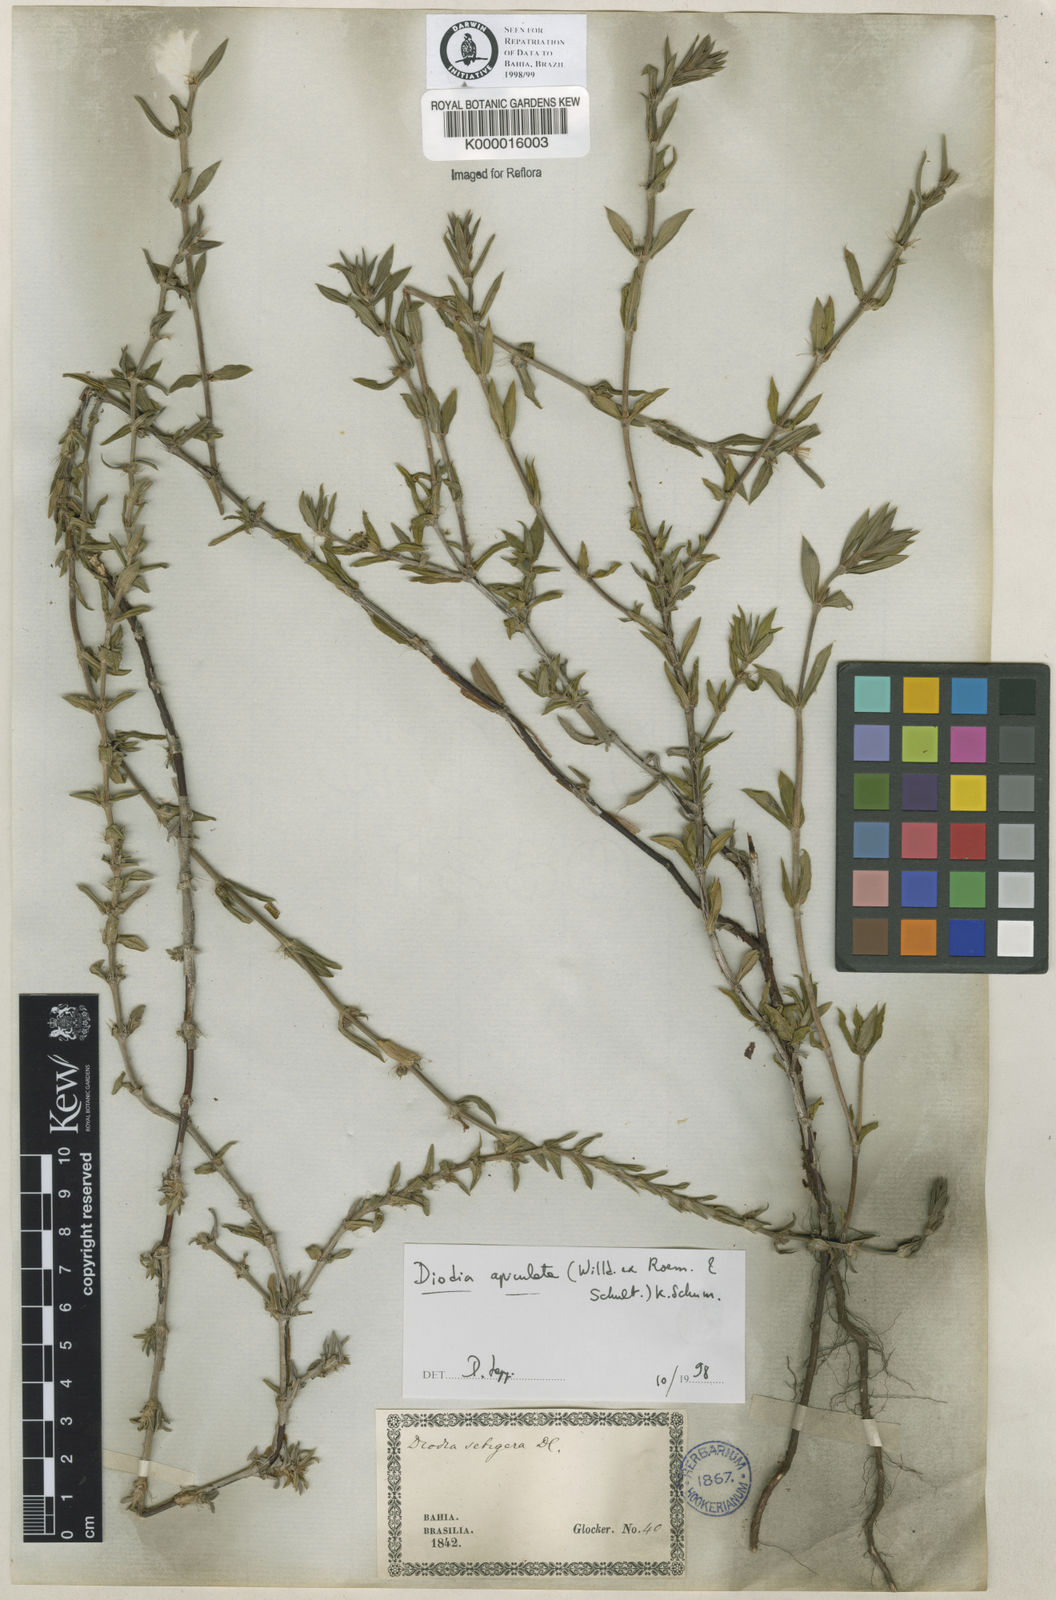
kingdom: Plantae
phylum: Tracheophyta
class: Magnoliopsida
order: Gentianales
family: Rubiaceae
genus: Hexasepalum
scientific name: Hexasepalum apiculatum
